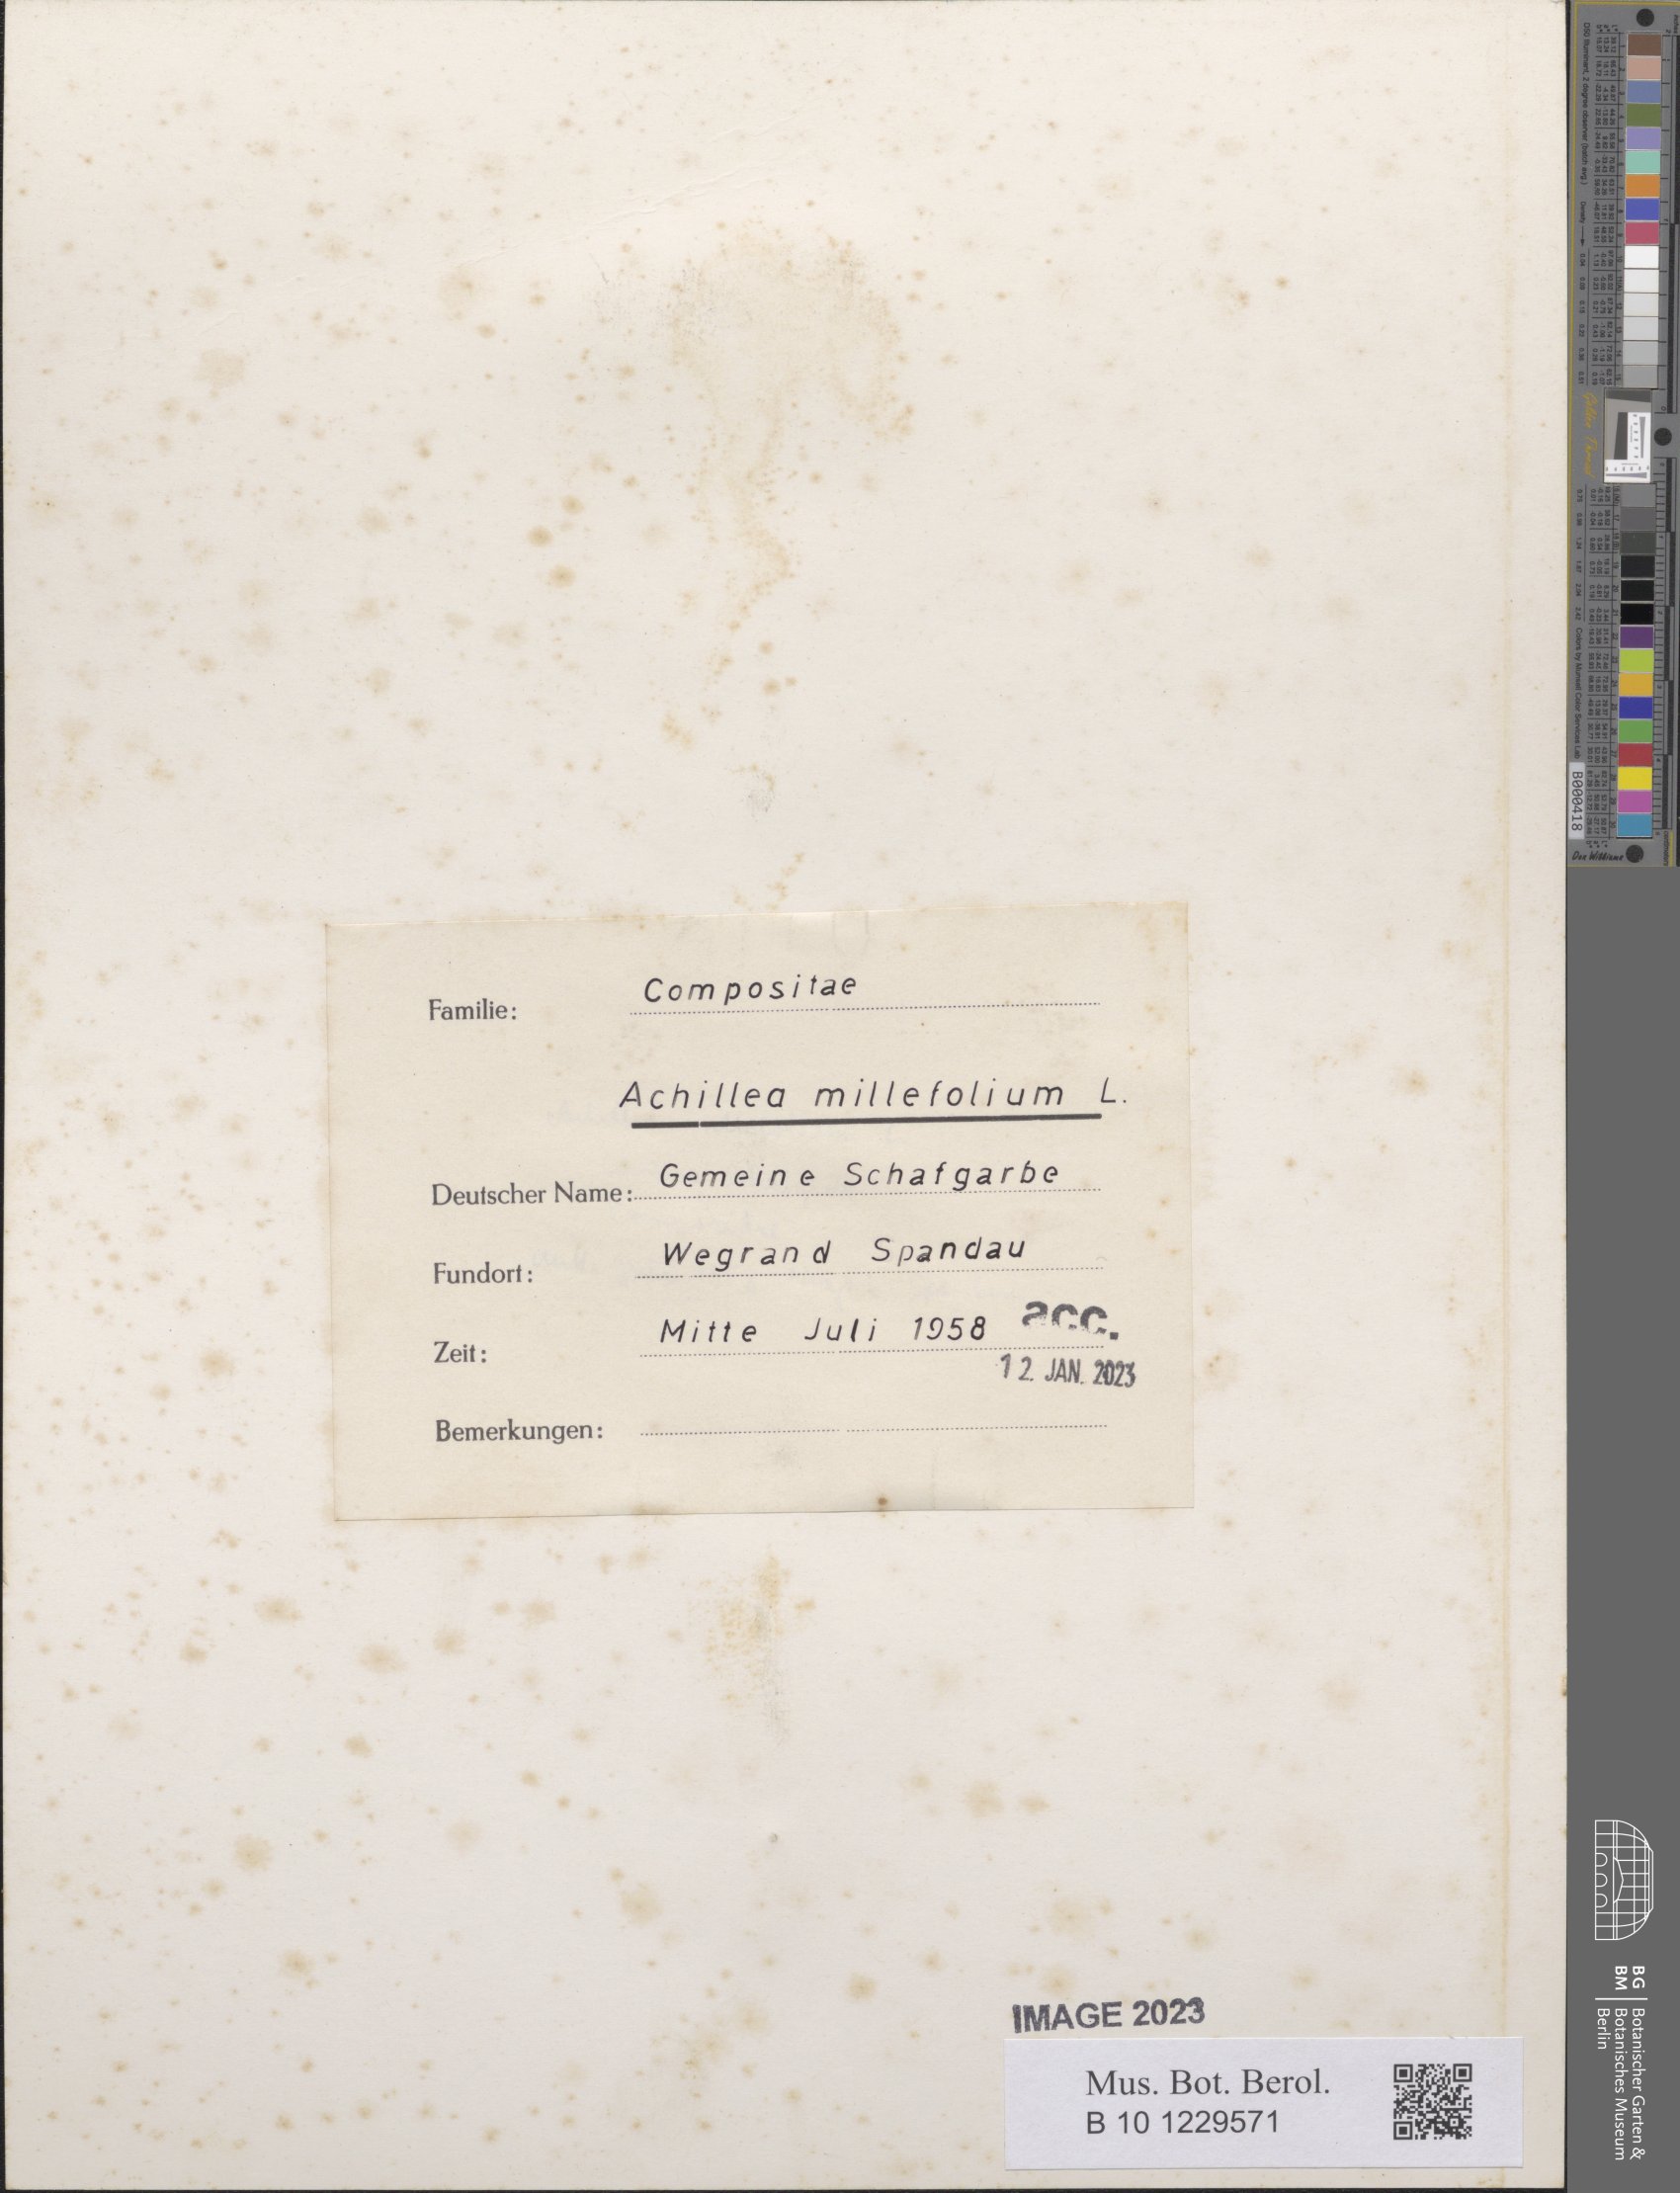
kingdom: Plantae
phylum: Tracheophyta
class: Magnoliopsida
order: Asterales
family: Asteraceae
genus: Achillea
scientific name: Achillea millefolium
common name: Yarrow
